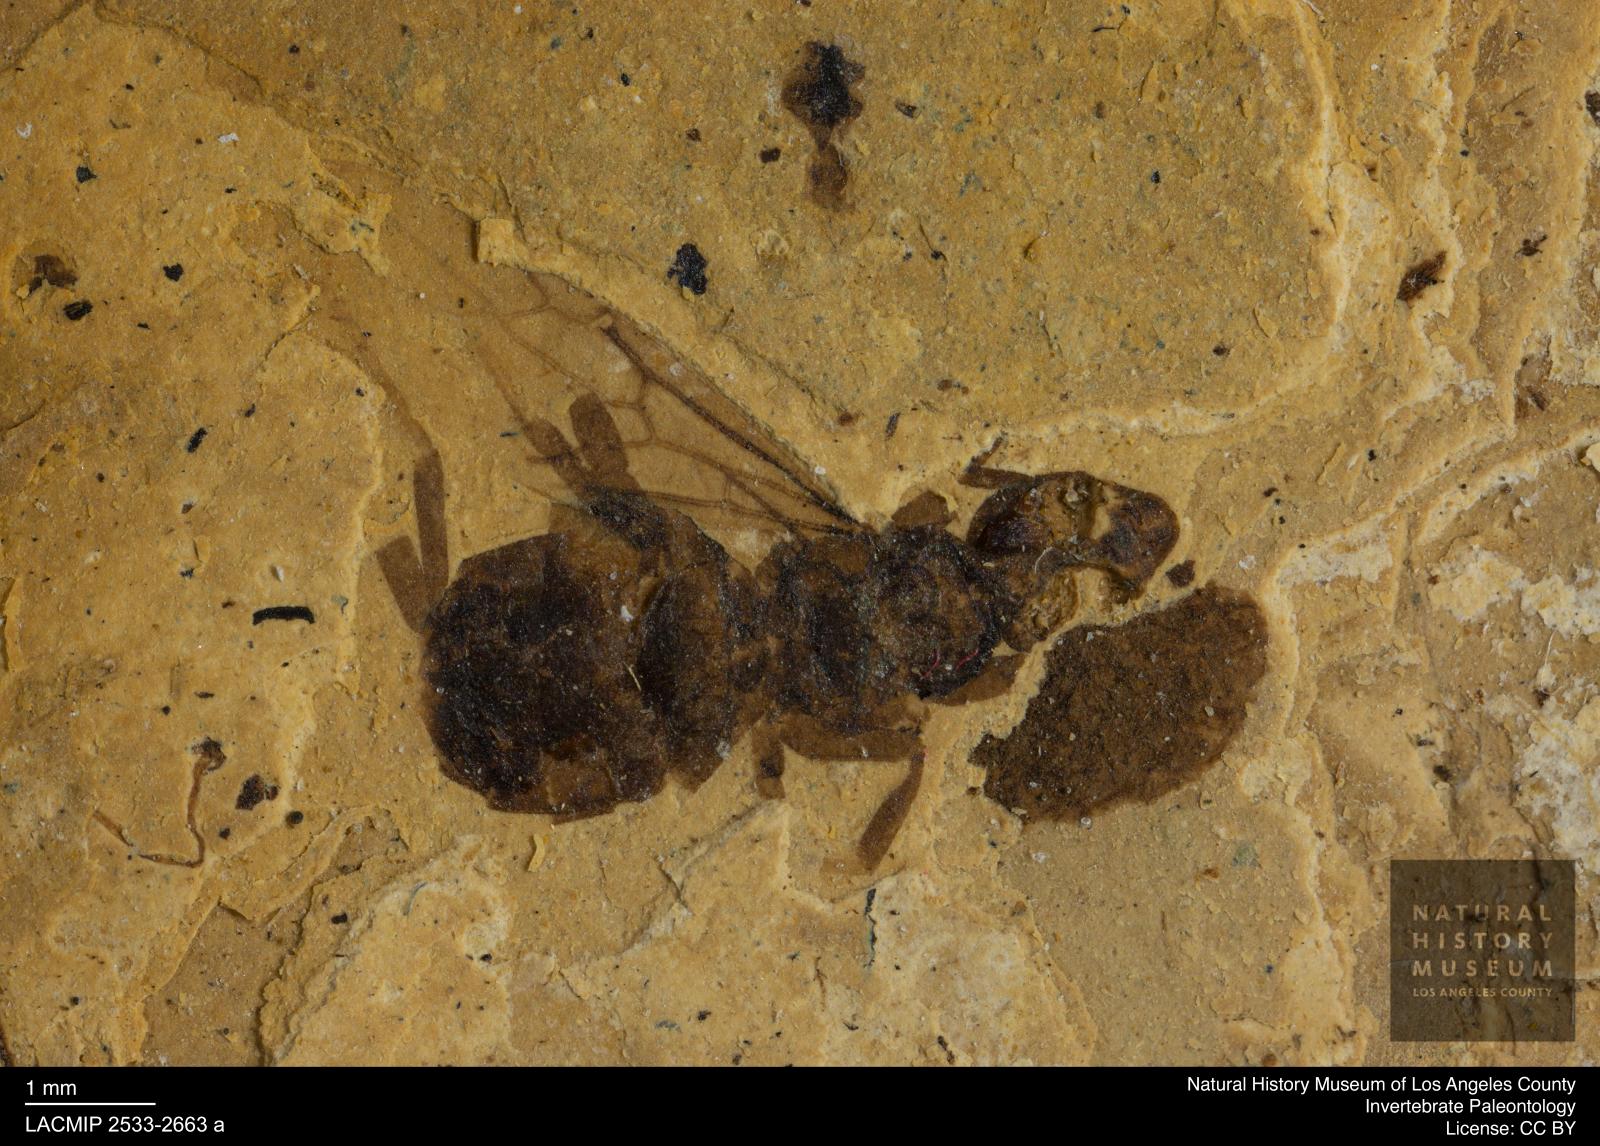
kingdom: Animalia
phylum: Arthropoda
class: Insecta
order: Hymenoptera
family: Formicidae
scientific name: Formicidae
